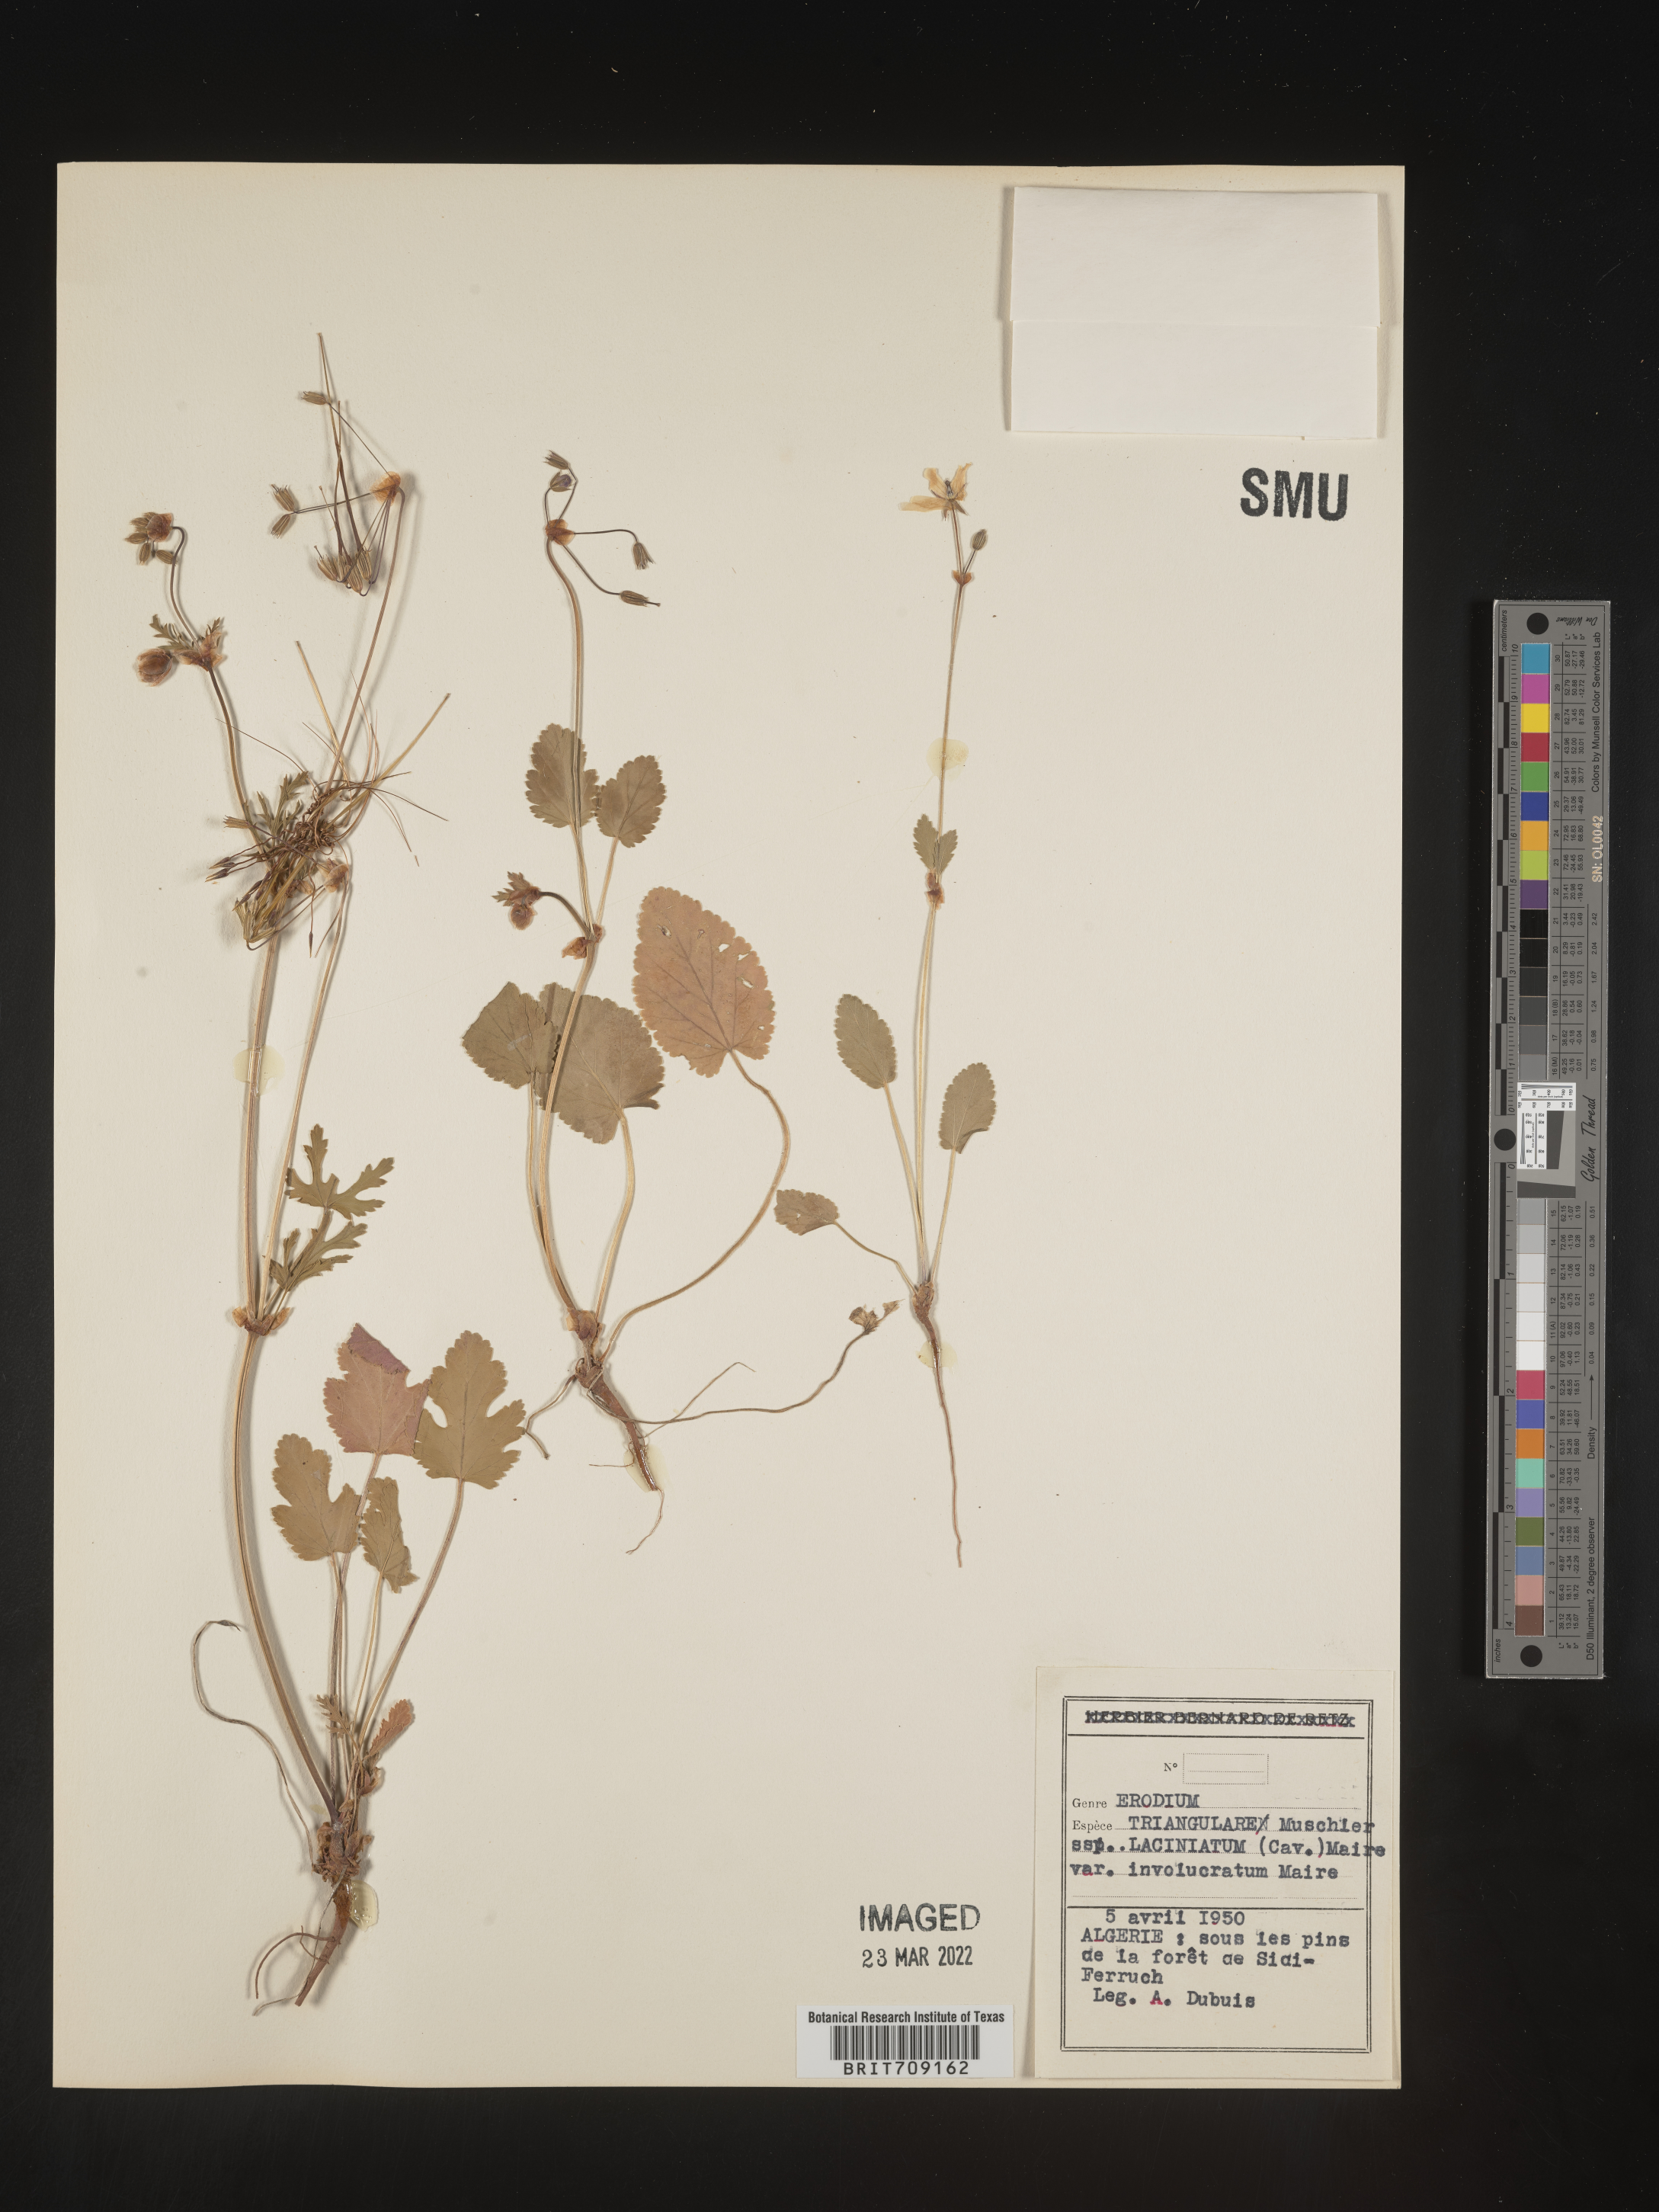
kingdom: Plantae
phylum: Tracheophyta
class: Magnoliopsida
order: Geraniales
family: Geraniaceae
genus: Erodium
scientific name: Erodium
